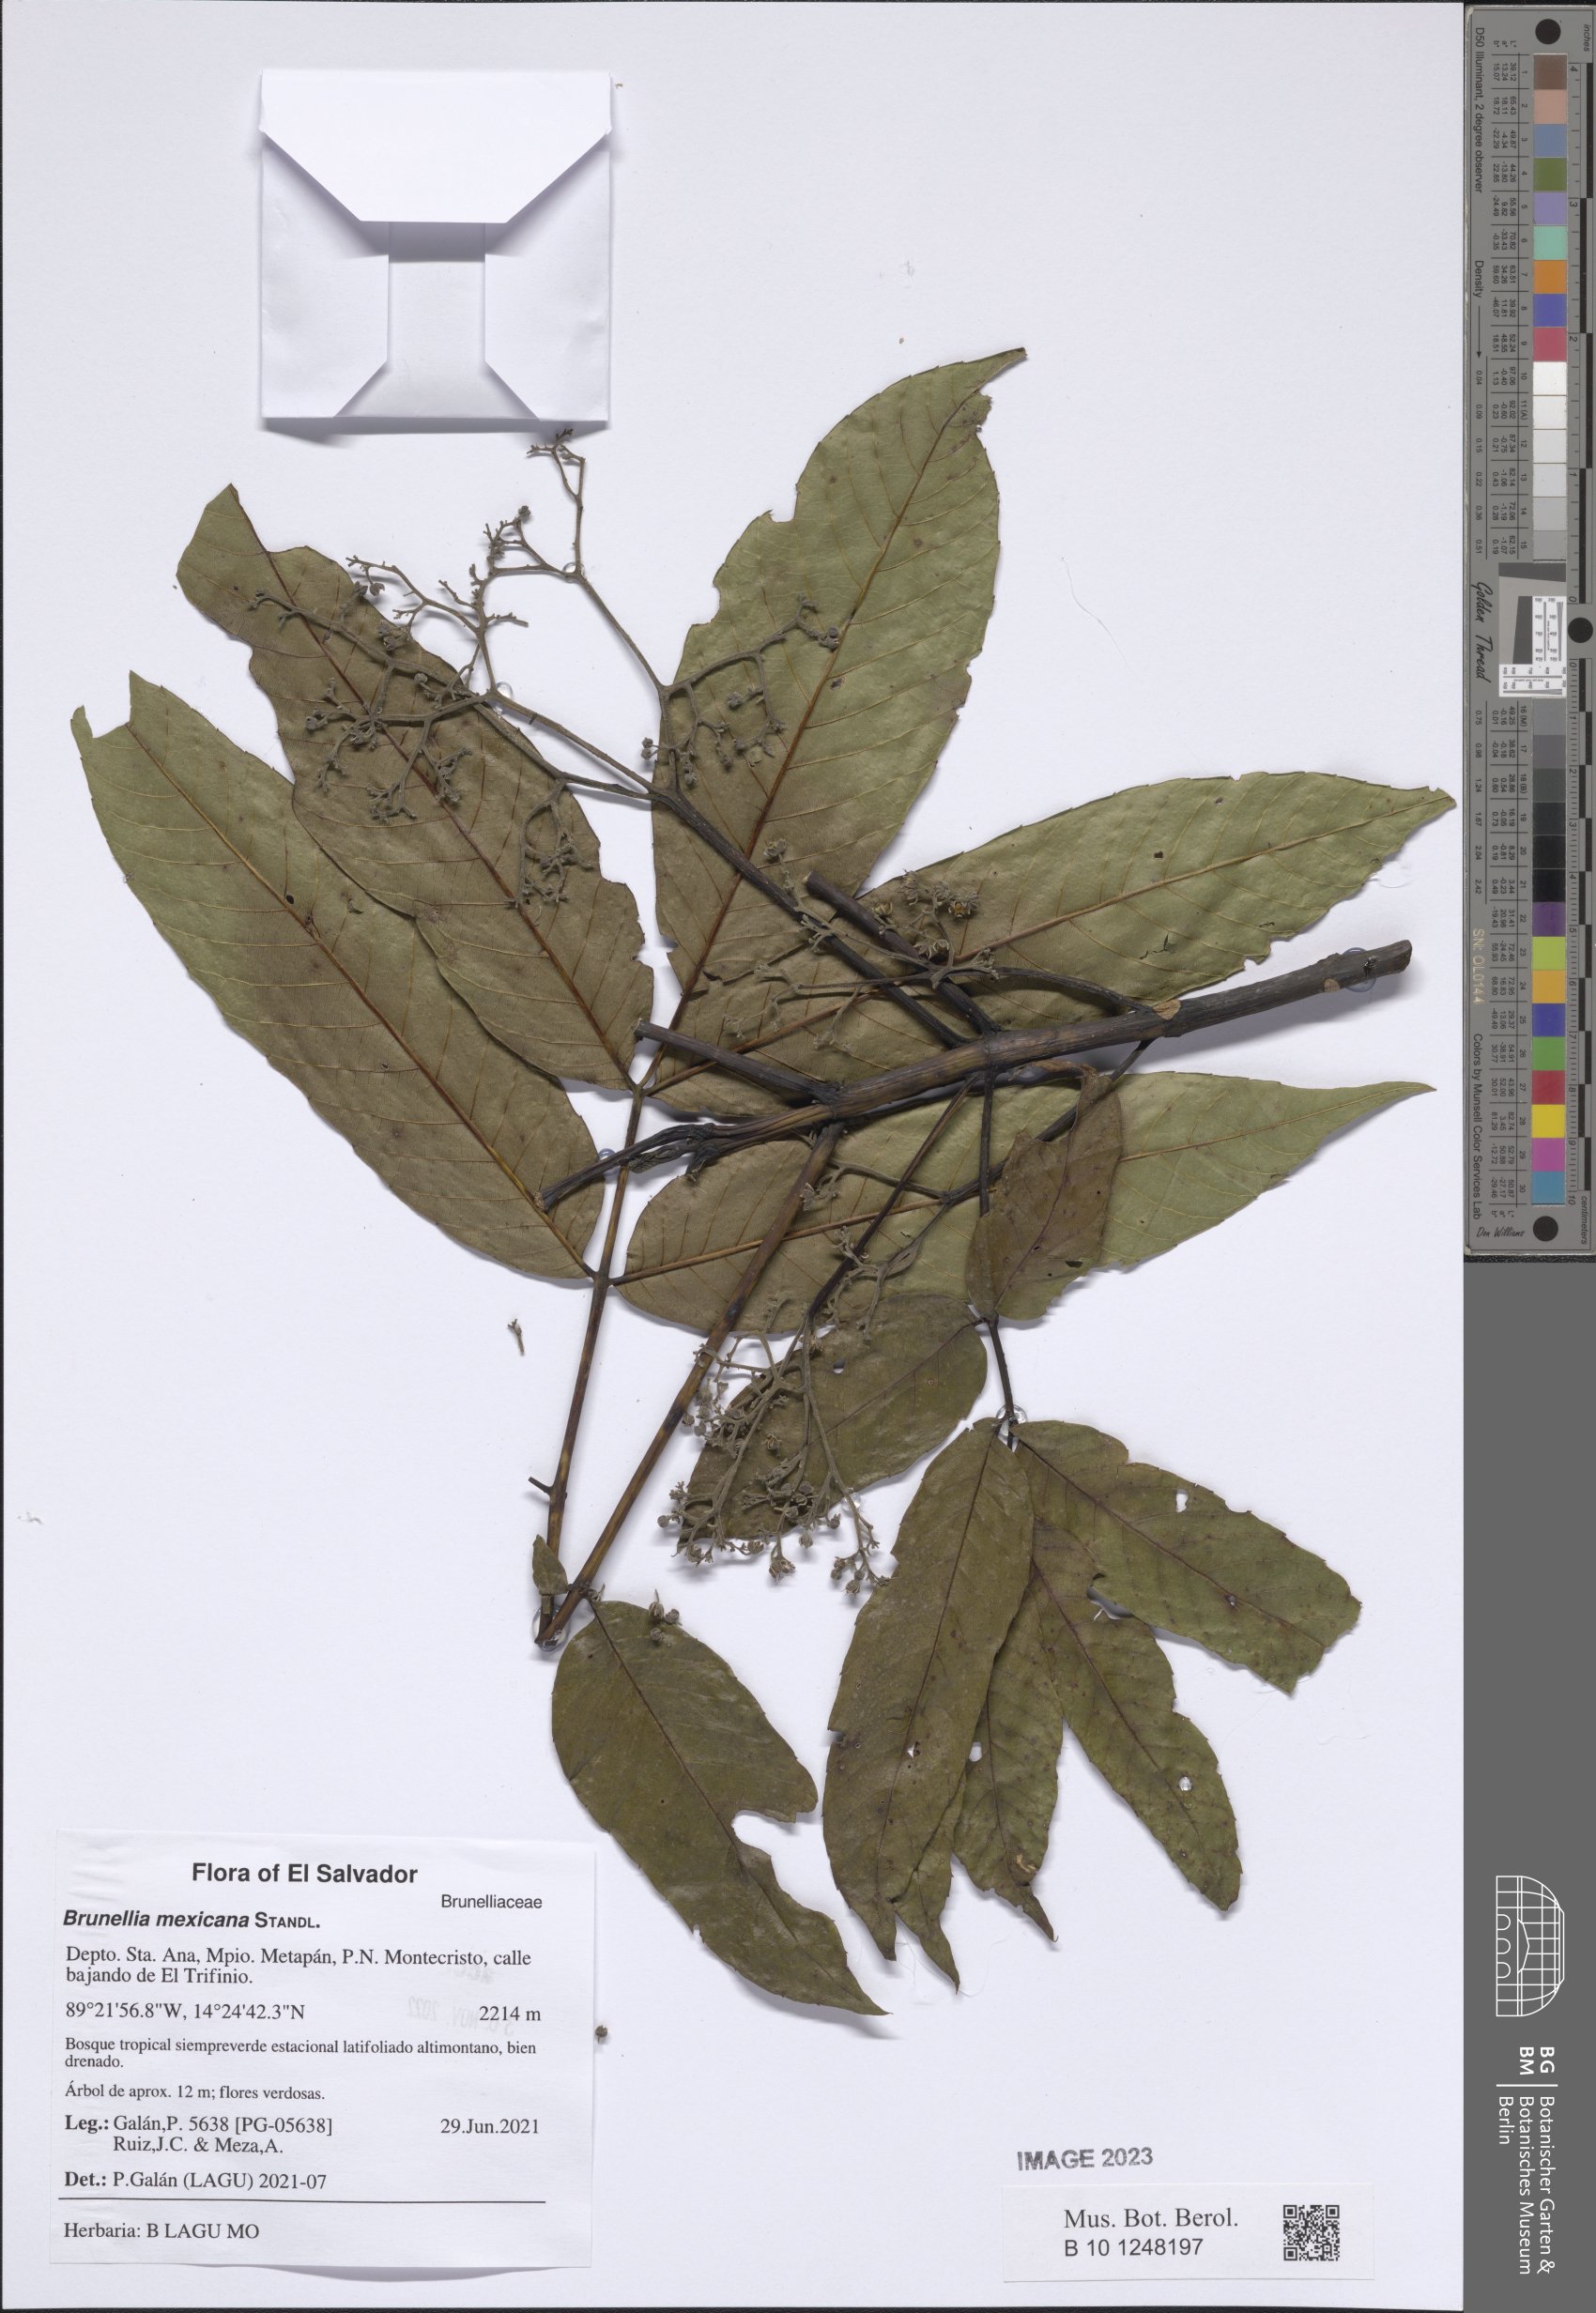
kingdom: Plantae
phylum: Tracheophyta
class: Magnoliopsida
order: Oxalidales
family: Brunelliaceae
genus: Brunellia
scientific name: Brunellia mexicana
